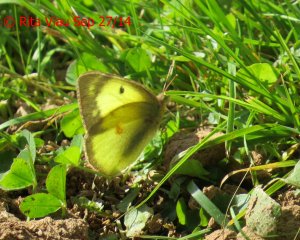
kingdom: Animalia
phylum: Arthropoda
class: Insecta
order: Lepidoptera
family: Pieridae
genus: Colias
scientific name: Colias philodice
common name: Clouded Sulphur
